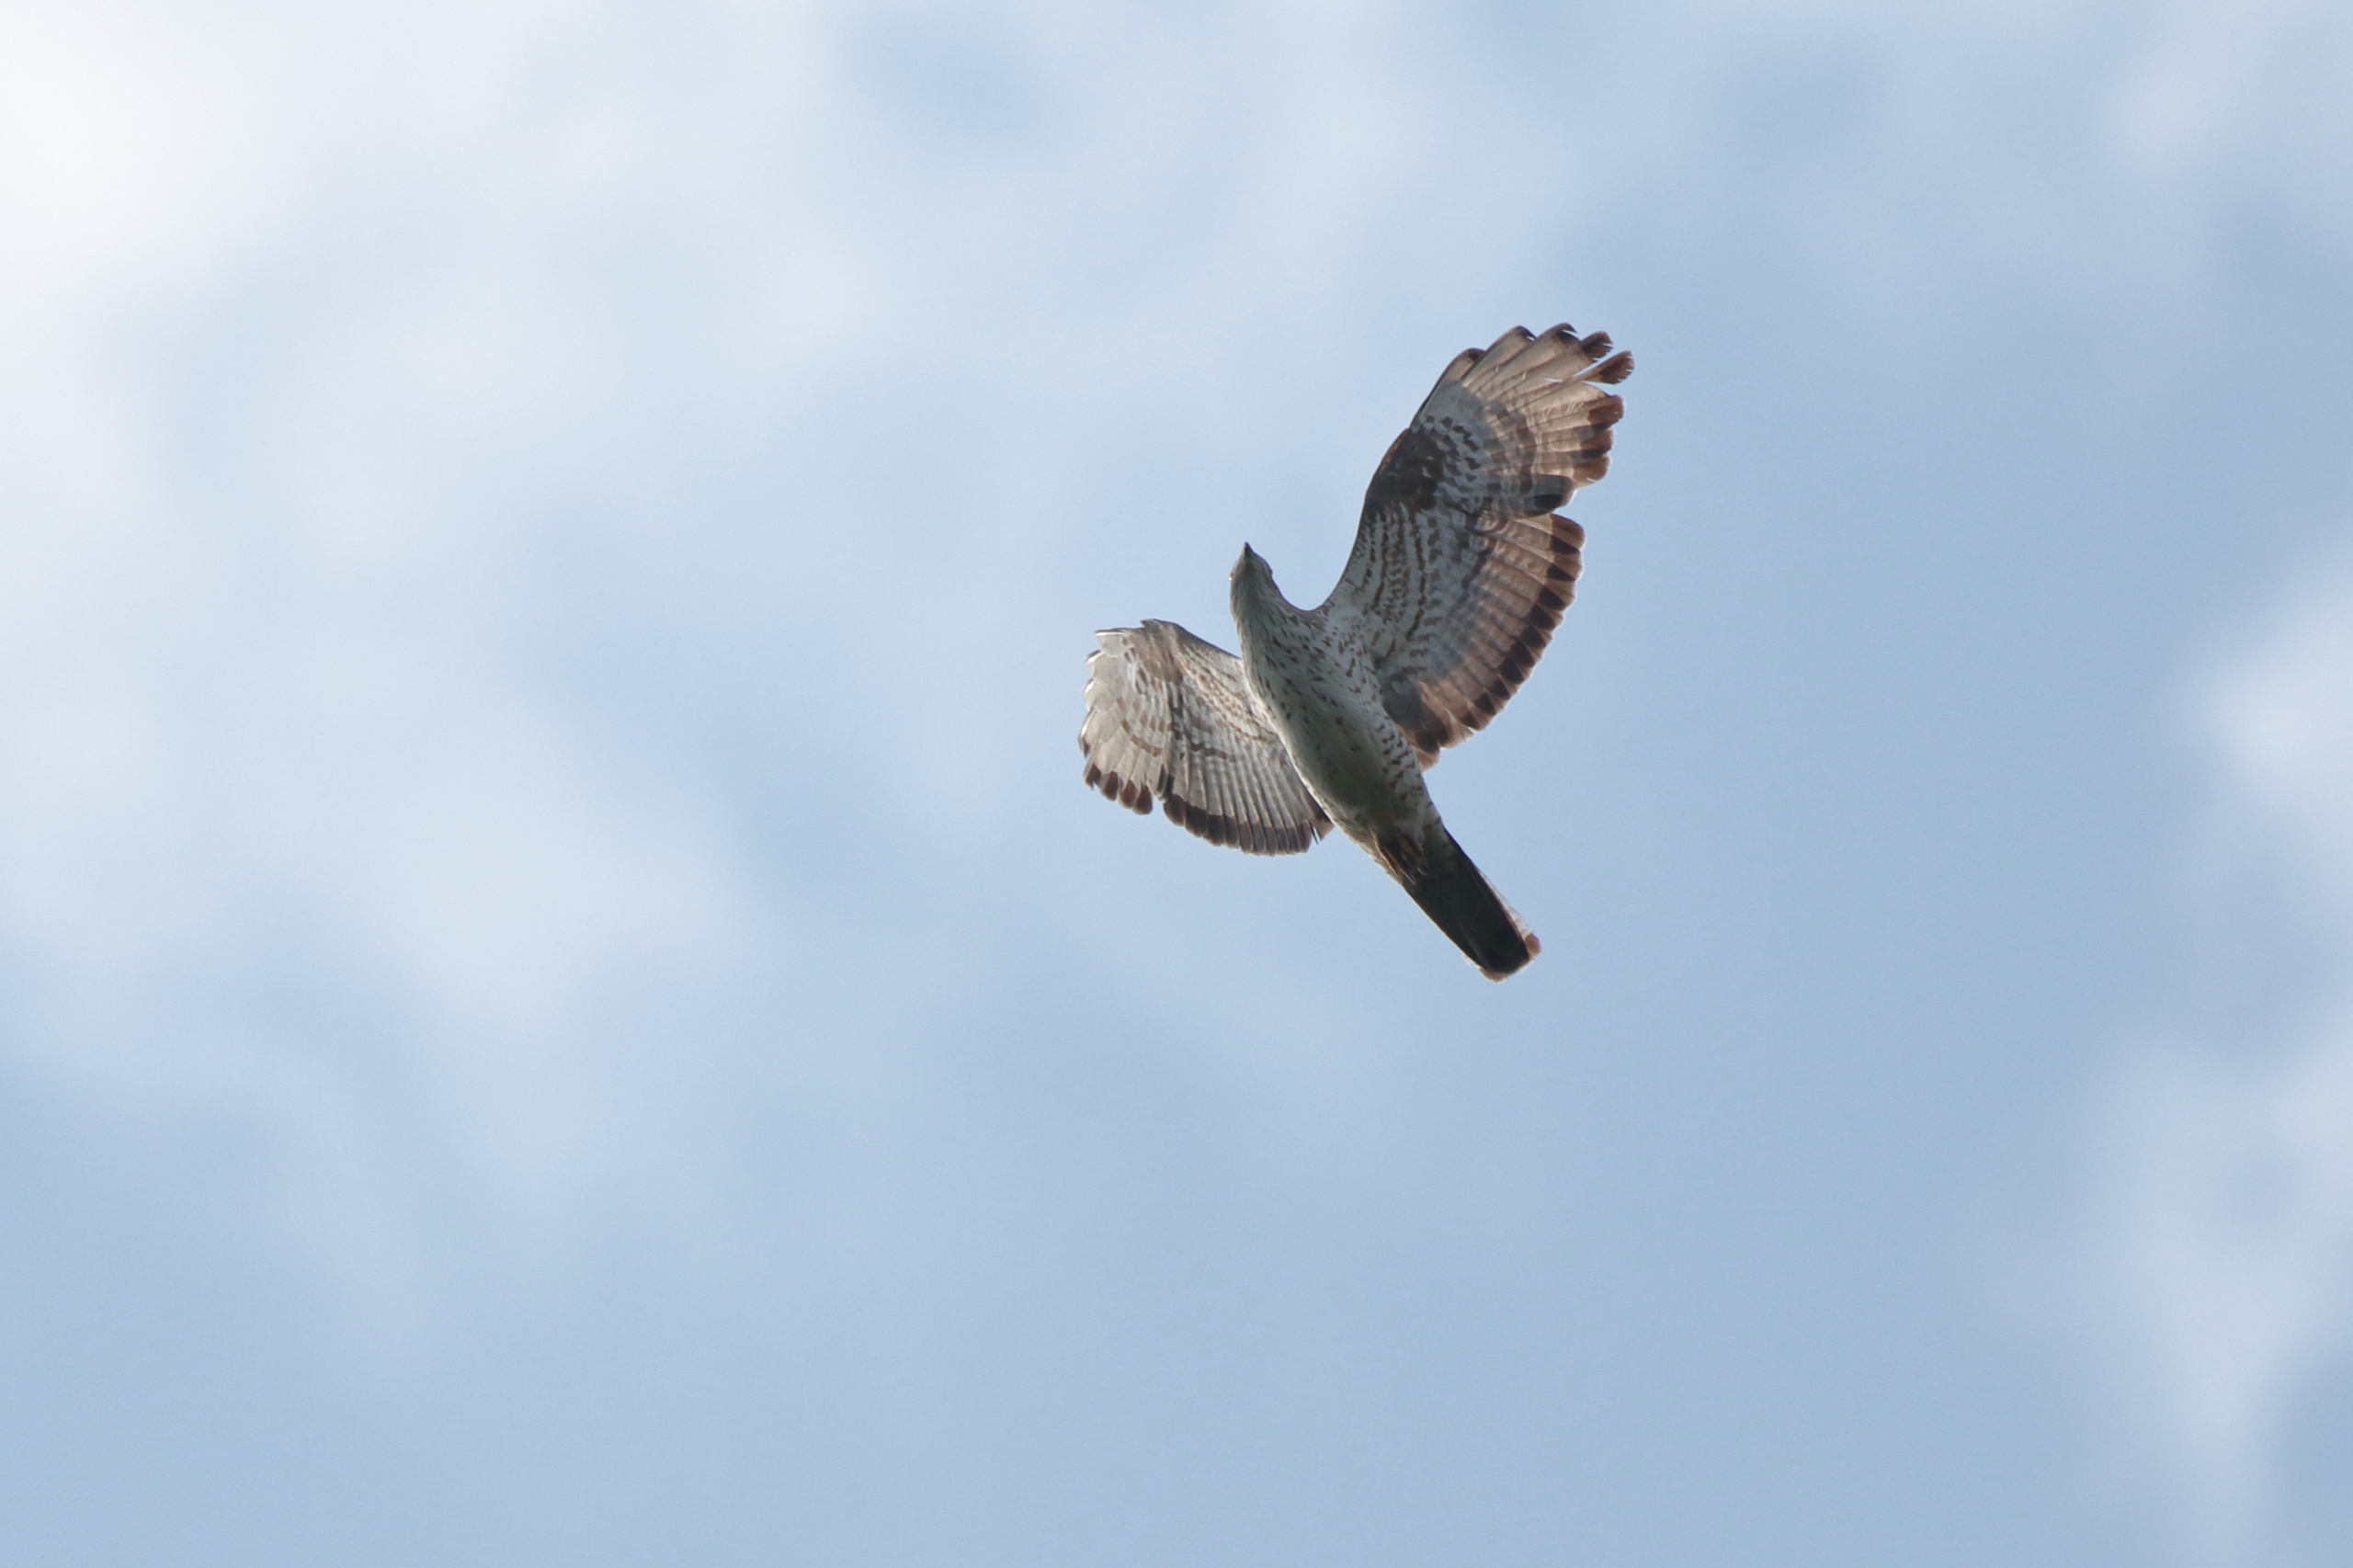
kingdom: Animalia
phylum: Chordata
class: Aves
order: Accipitriformes
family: Accipitridae
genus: Pernis
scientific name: Pernis apivorus
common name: Hvepsevåge
